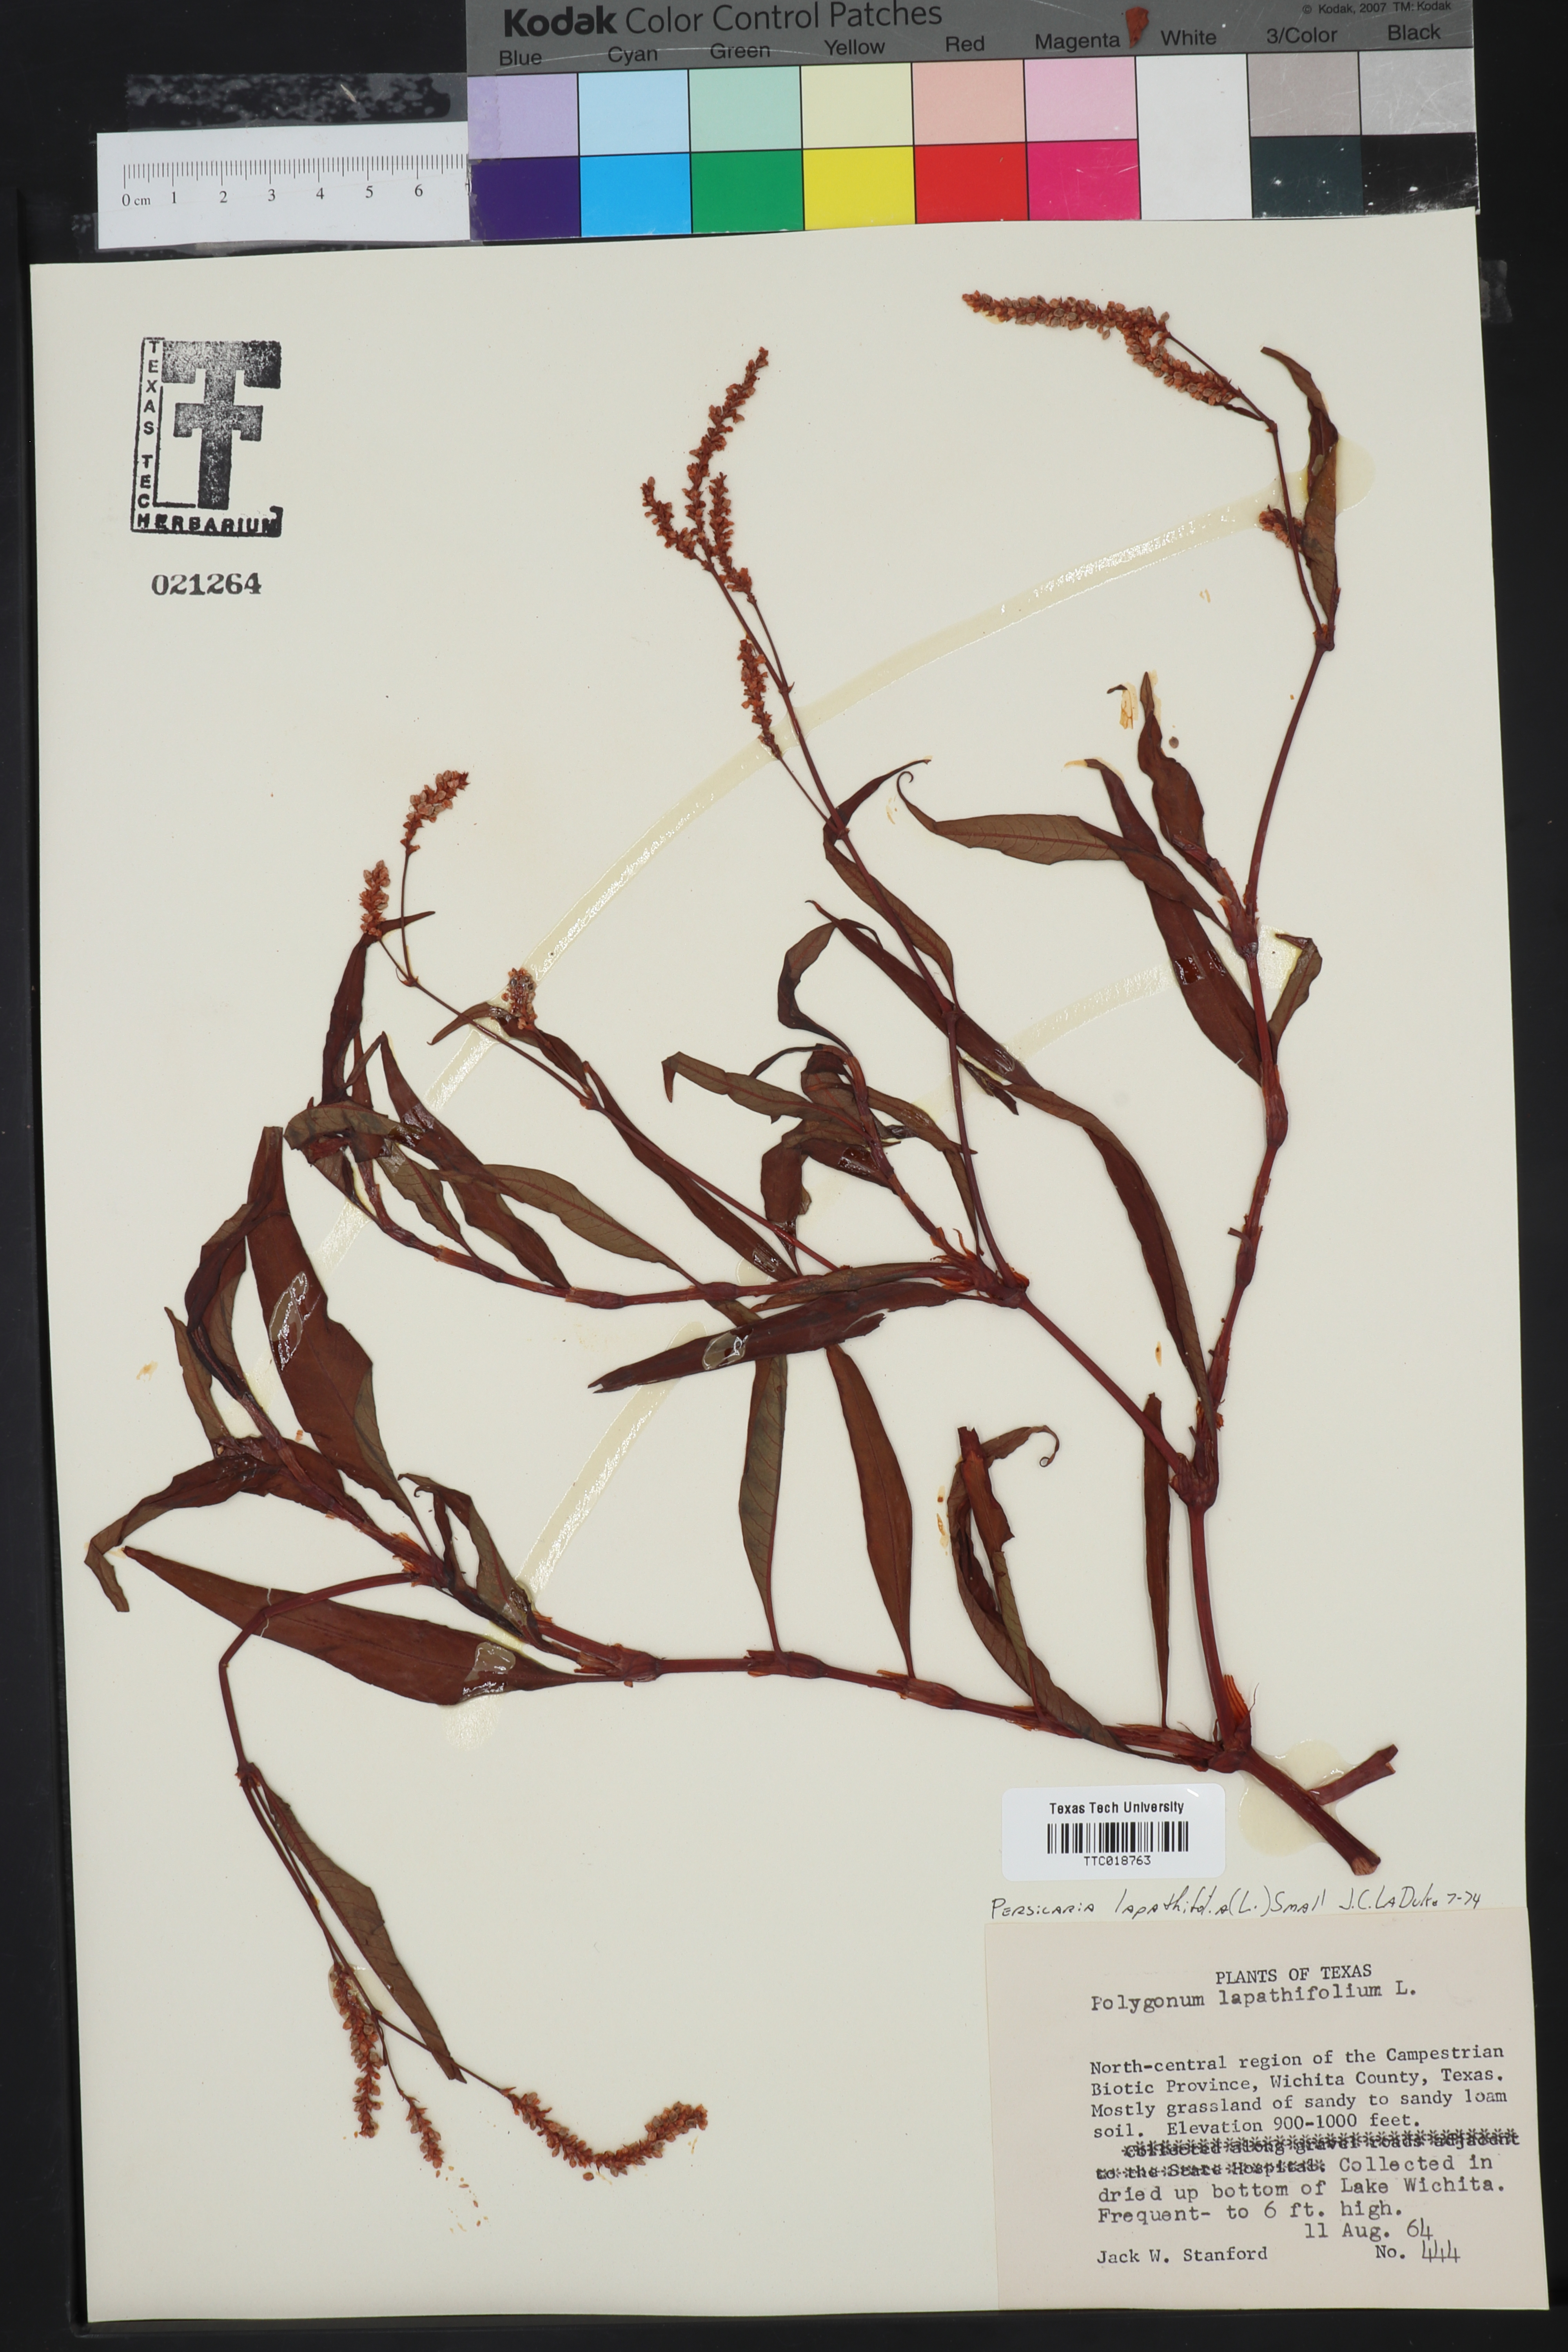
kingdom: Plantae
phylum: Tracheophyta
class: Magnoliopsida
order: Caryophyllales
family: Polygonaceae
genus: Persicaria
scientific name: Persicaria lapathifolia
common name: Curlytop knotweed
